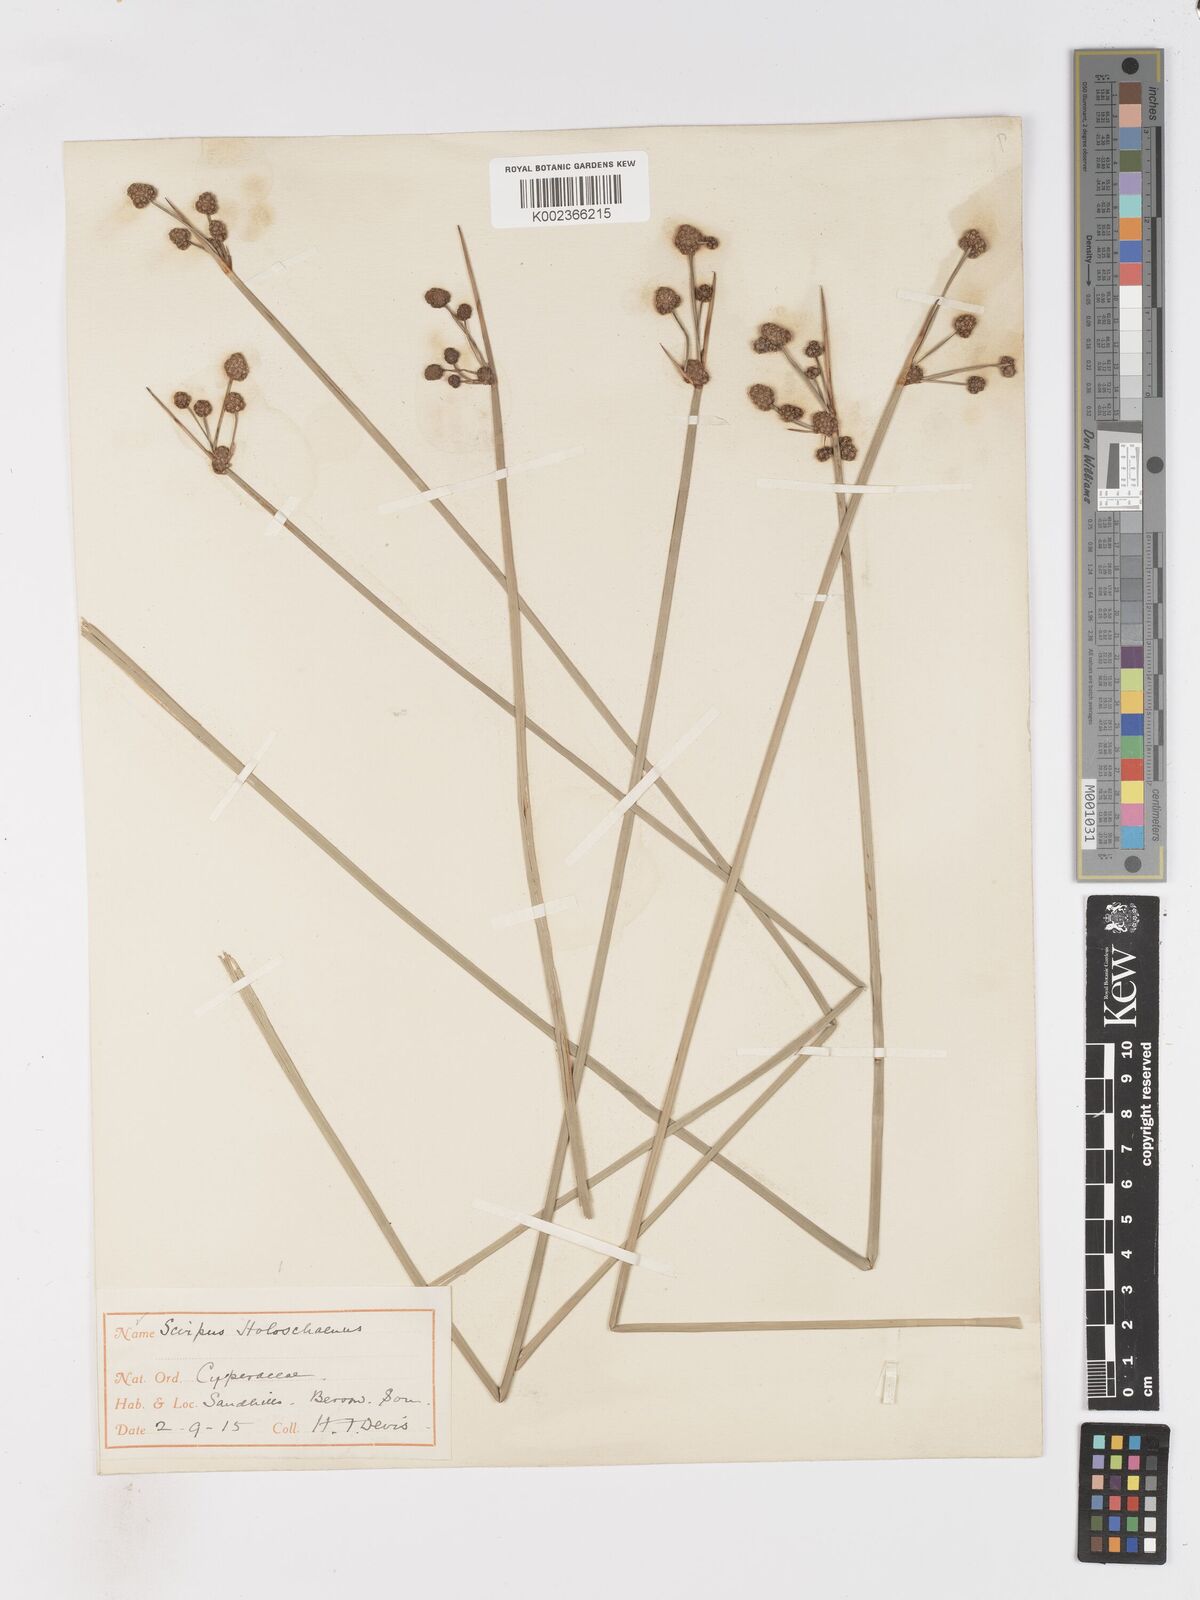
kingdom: Plantae
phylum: Tracheophyta
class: Liliopsida
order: Poales
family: Cyperaceae
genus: Scirpoides
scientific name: Scirpoides holoschoenus
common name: Round-headed club-rush
